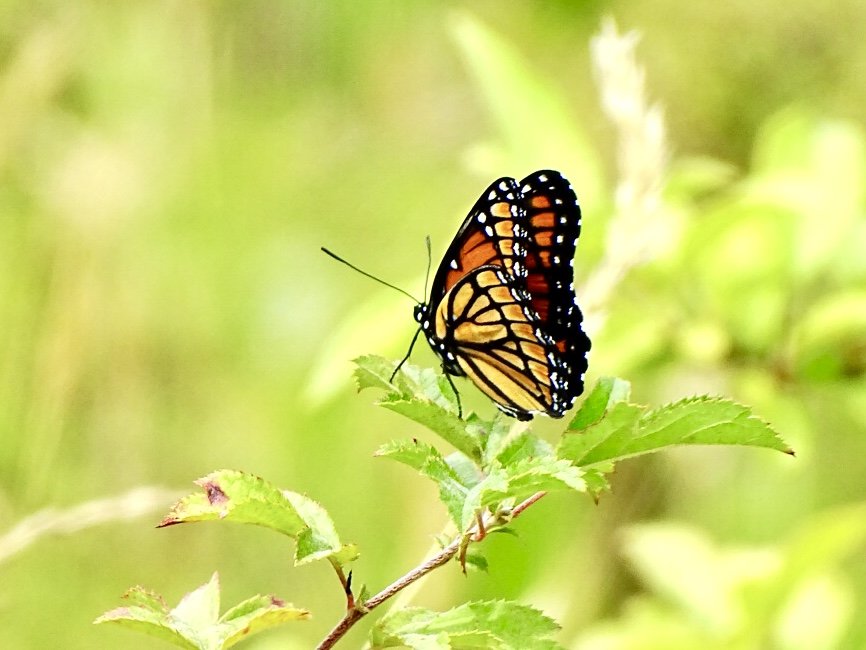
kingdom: Animalia
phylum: Arthropoda
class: Insecta
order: Lepidoptera
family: Nymphalidae
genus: Limenitis
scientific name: Limenitis archippus
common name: Viceroy
